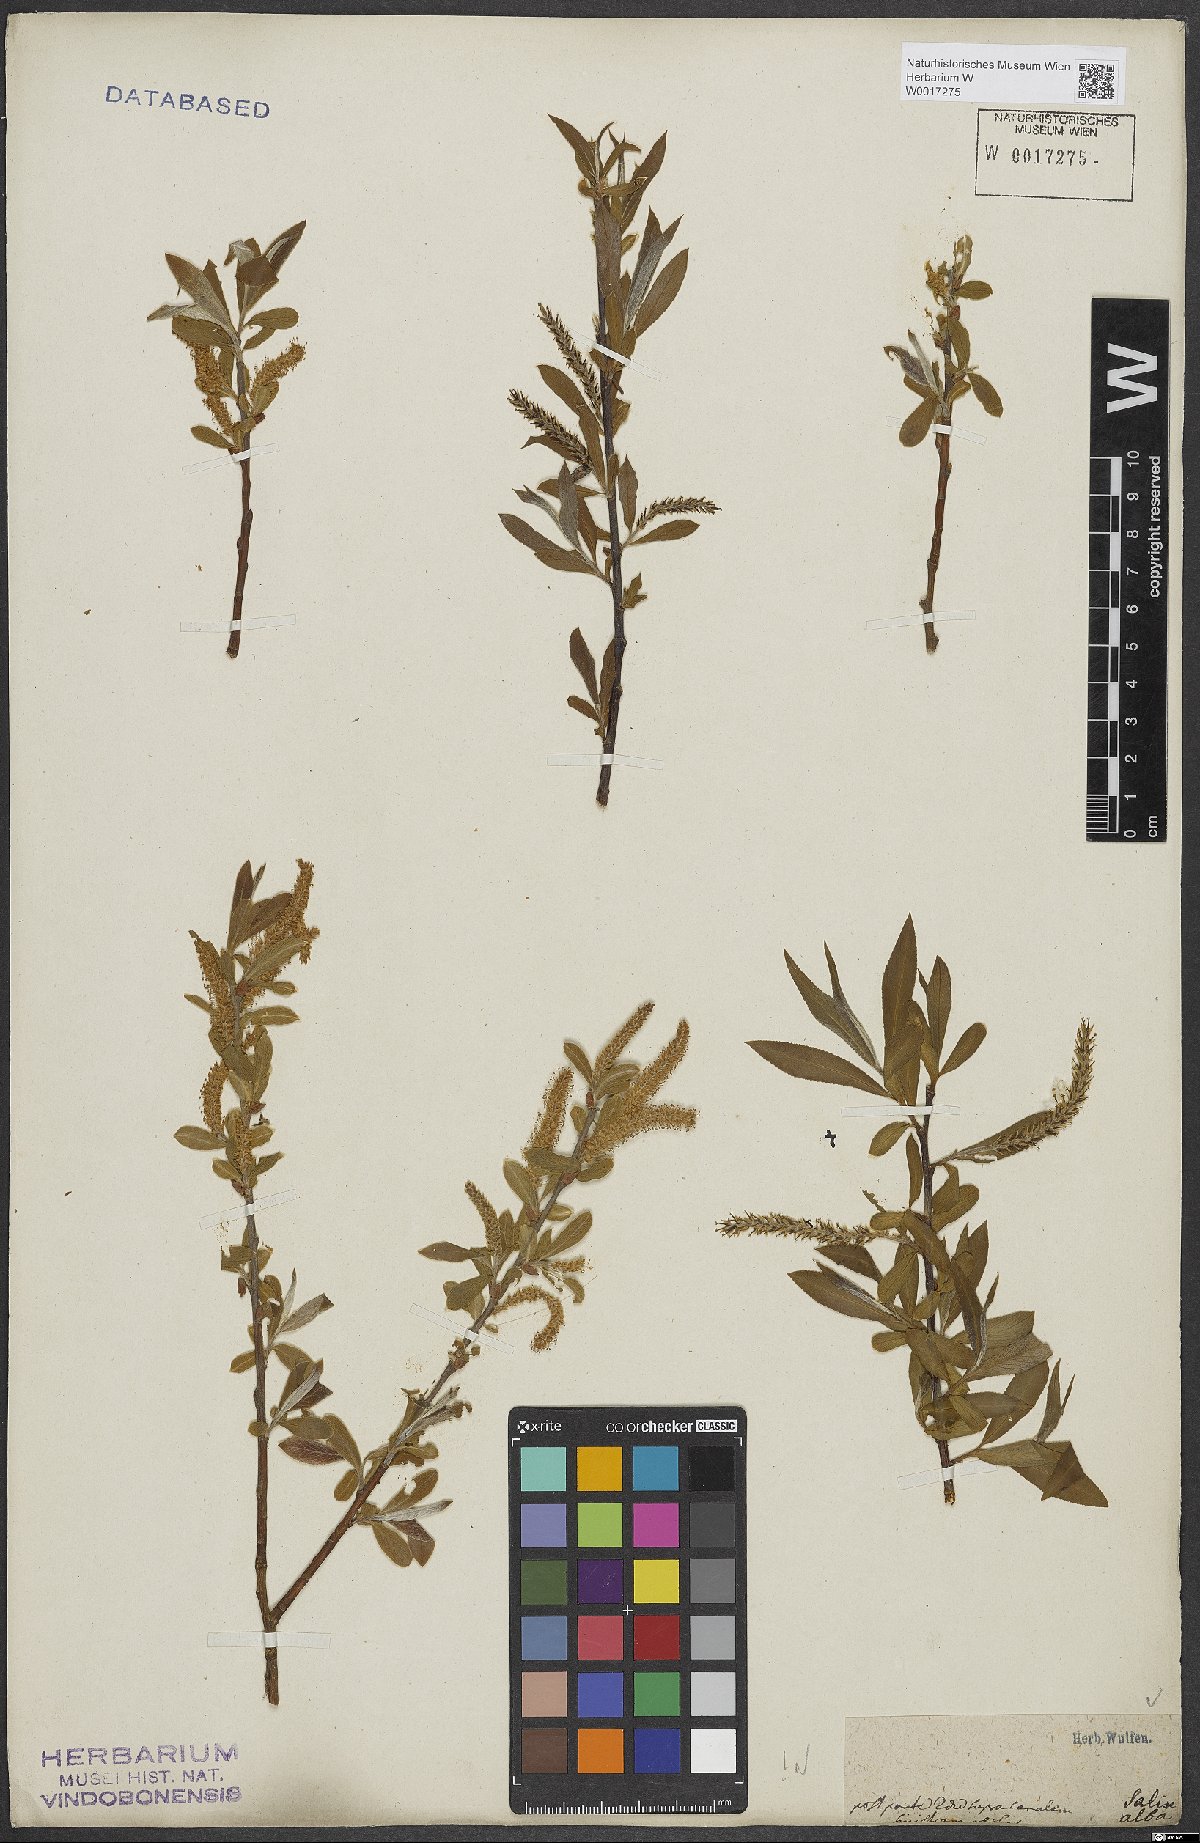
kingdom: Plantae
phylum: Tracheophyta
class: Magnoliopsida
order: Malpighiales
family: Salicaceae
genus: Salix
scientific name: Salix alba
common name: White willow
